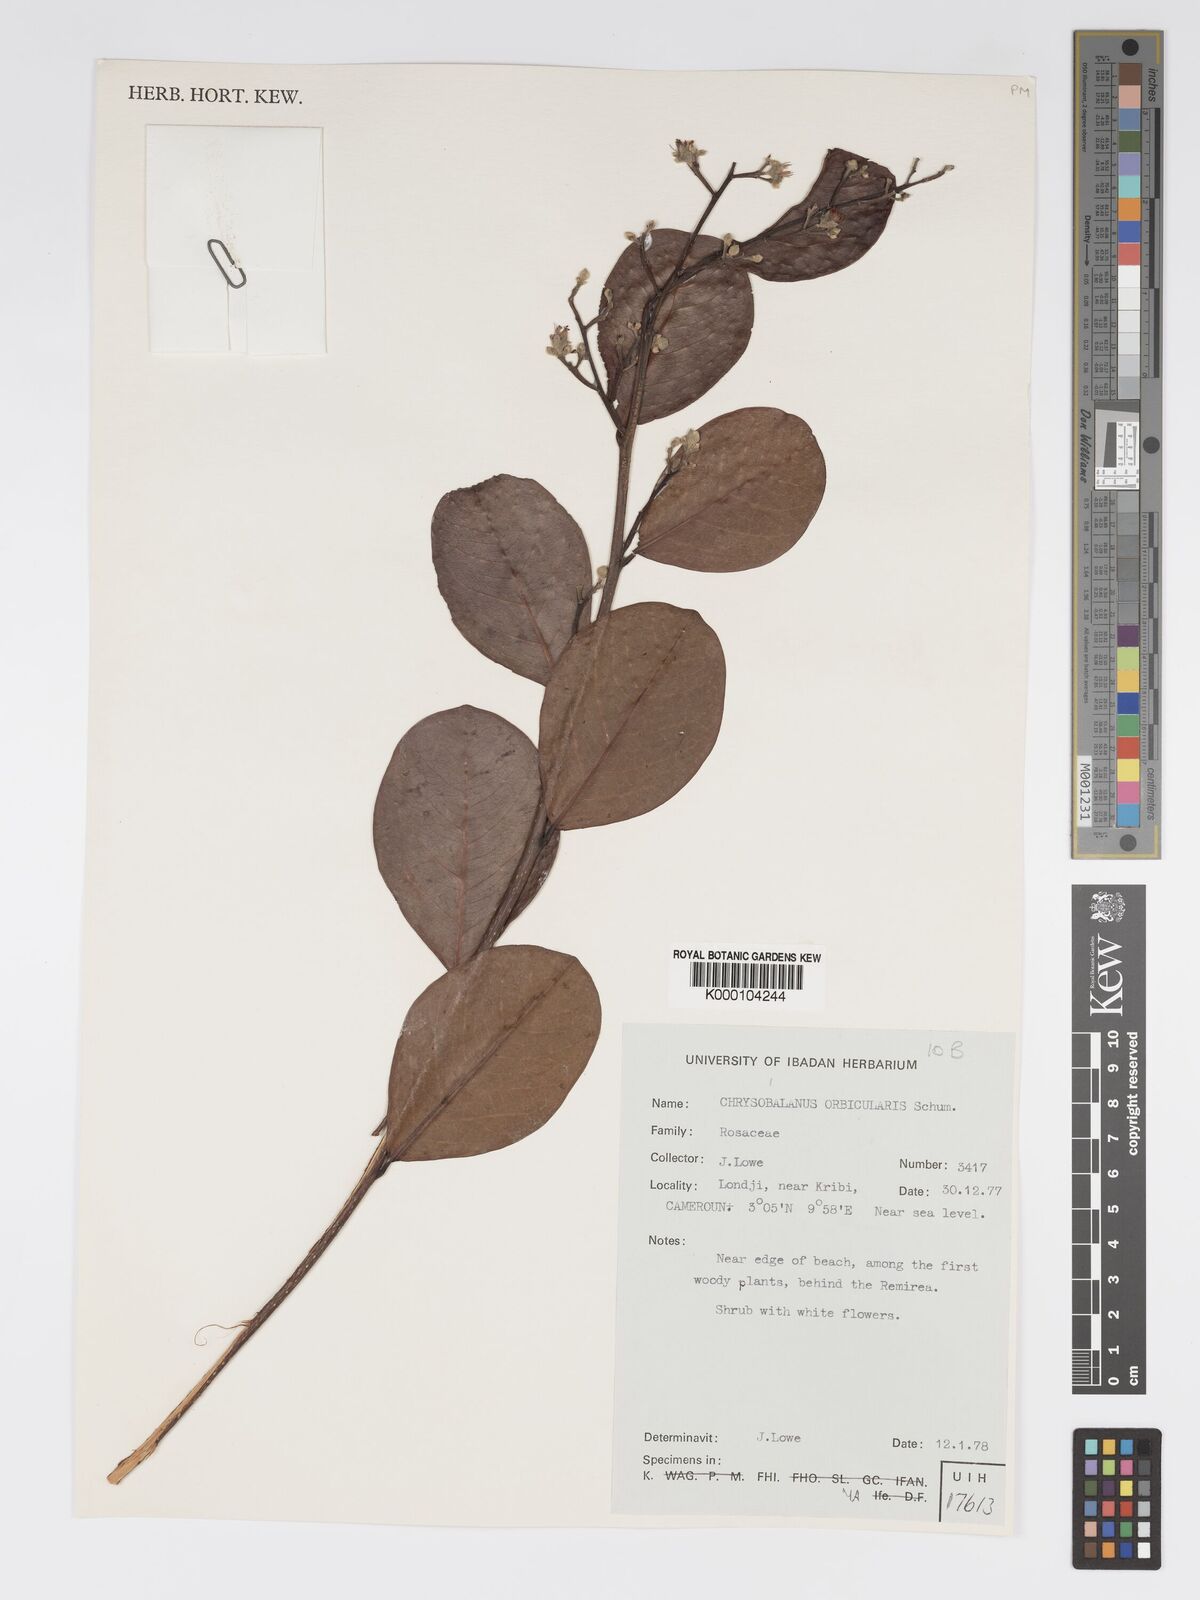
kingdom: Plantae
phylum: Tracheophyta
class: Magnoliopsida
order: Malpighiales
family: Chrysobalanaceae
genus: Chrysobalanus
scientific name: Chrysobalanus icaco
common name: Coco plum
